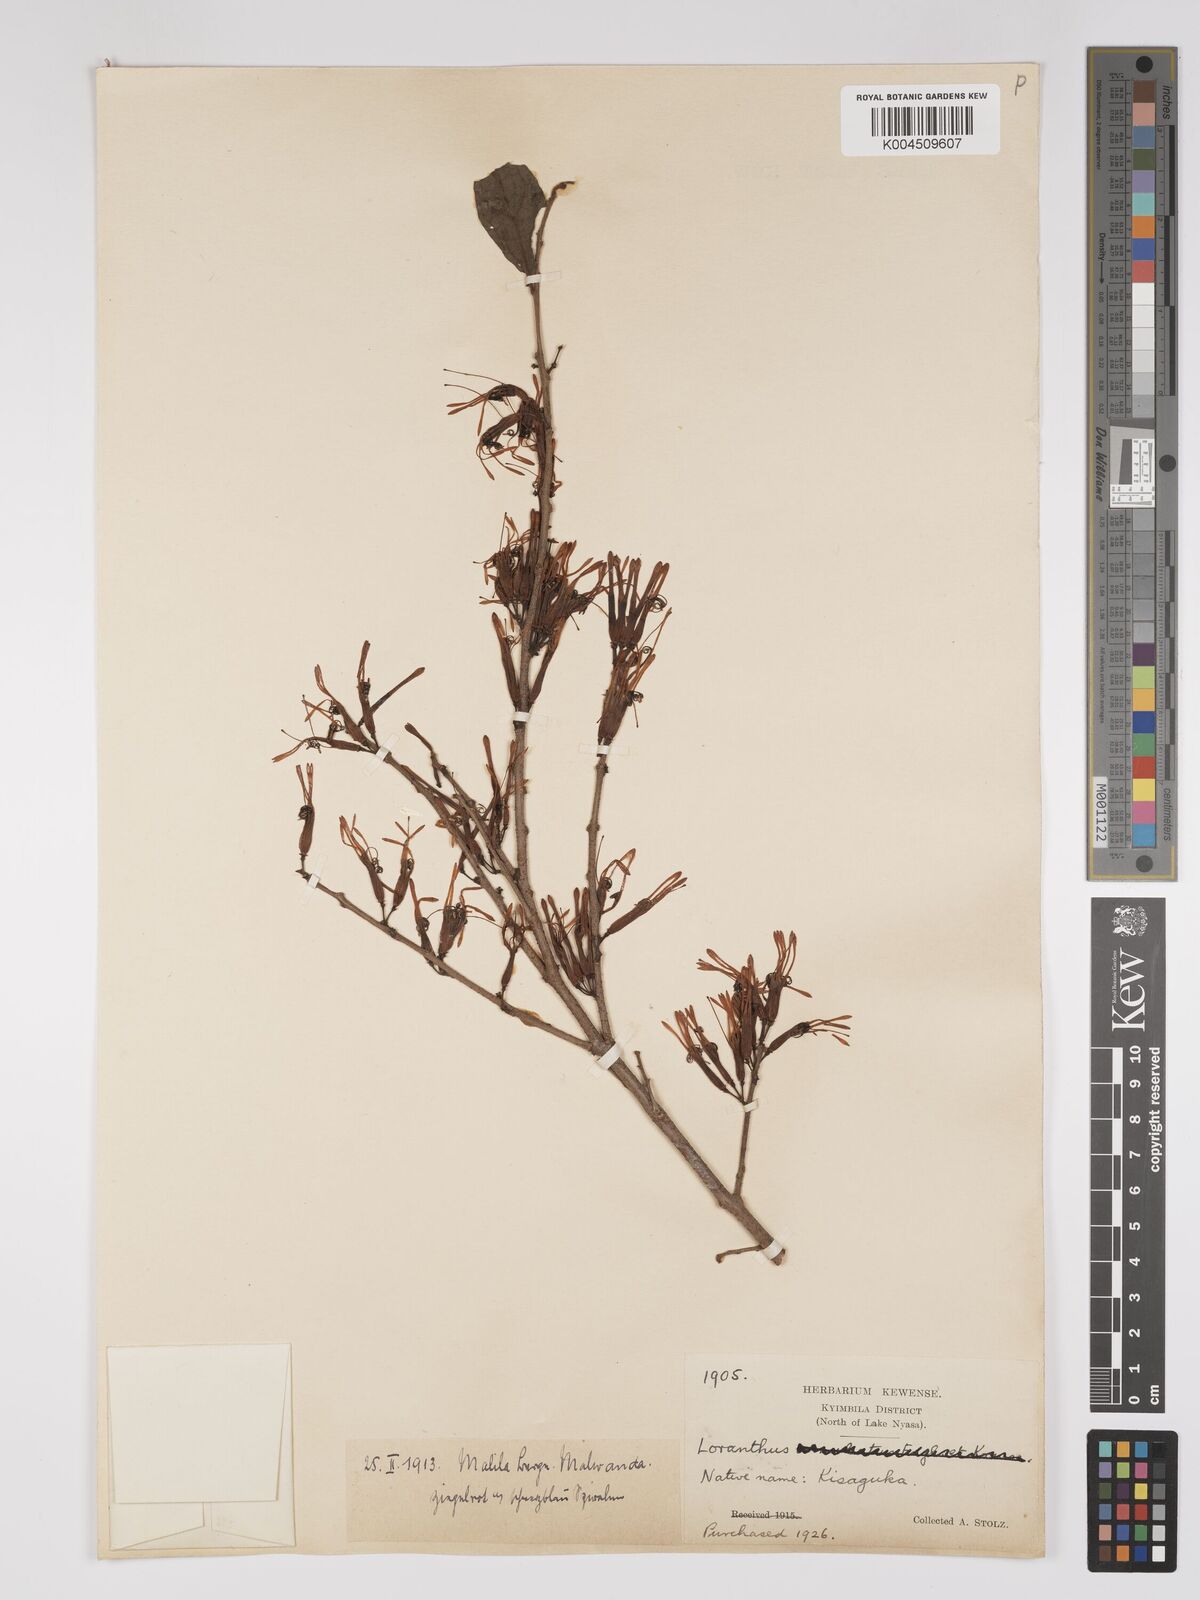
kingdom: Plantae
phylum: Tracheophyta
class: Magnoliopsida
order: Santalales
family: Loranthaceae
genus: Englerina
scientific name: Englerina inaequilatera
